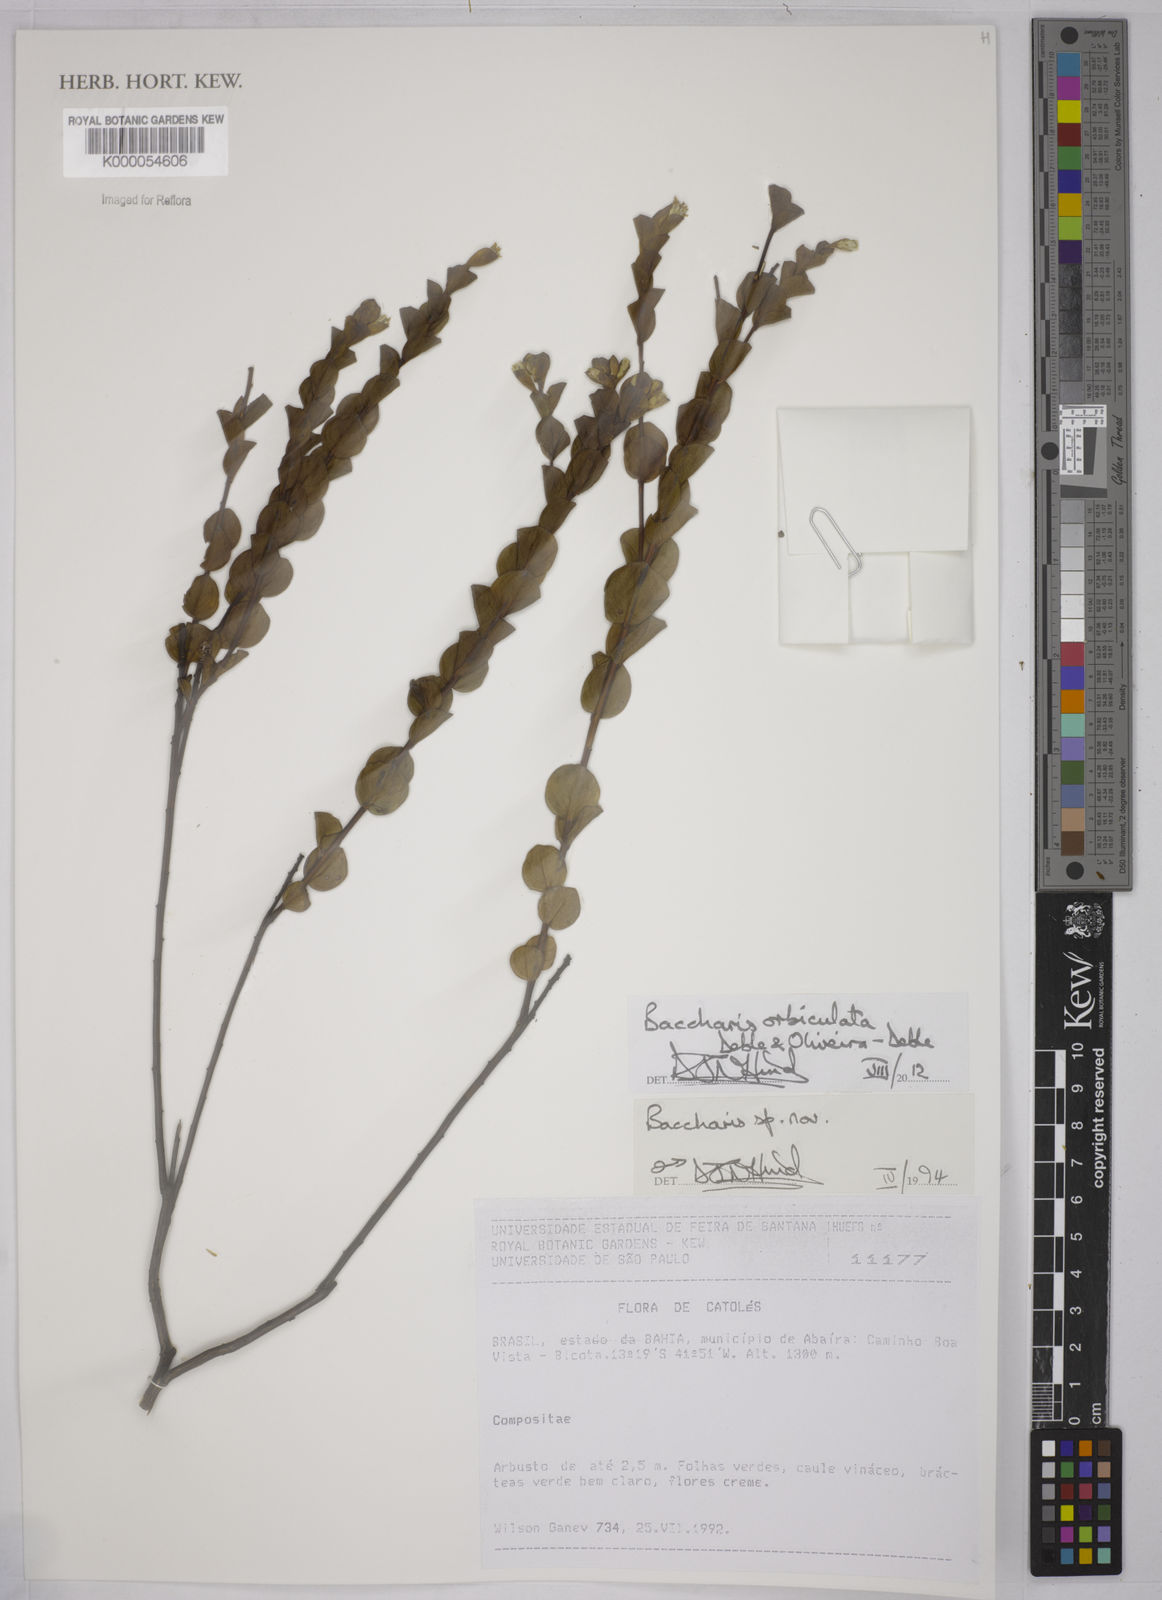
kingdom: Plantae
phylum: Tracheophyta
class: Magnoliopsida
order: Asterales
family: Asteraceae
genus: Baccharis
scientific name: Baccharis
